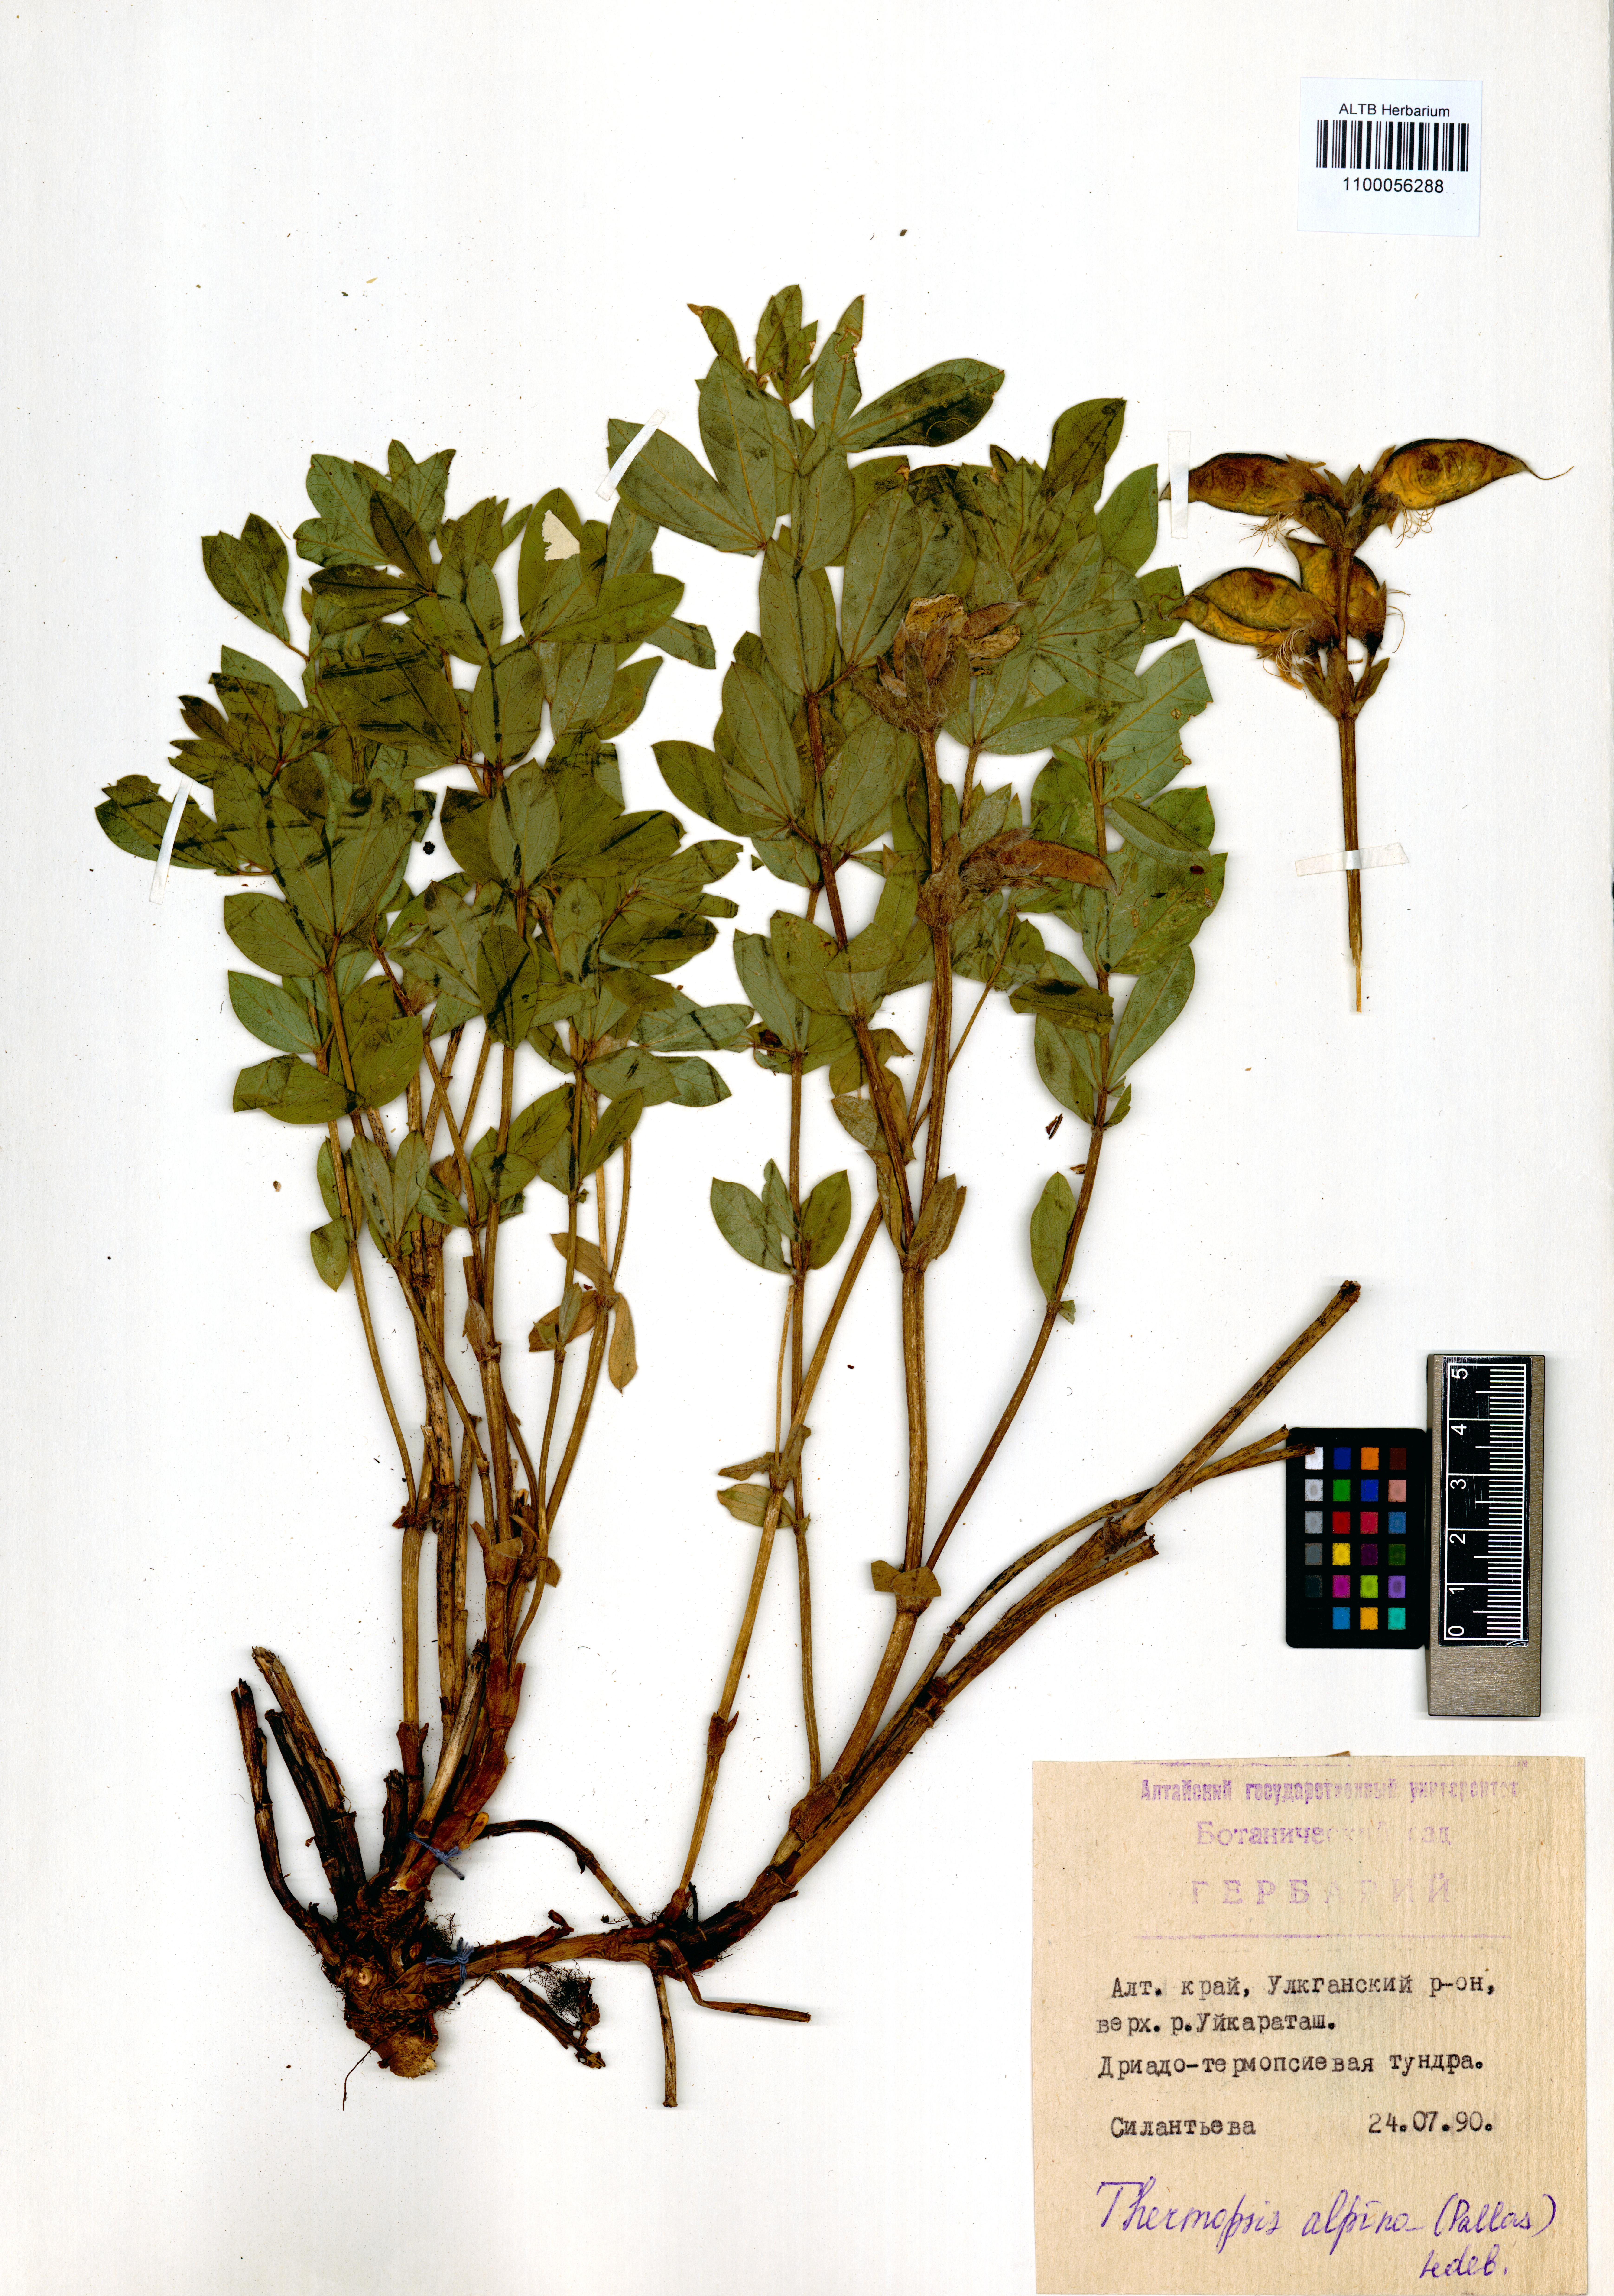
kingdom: Plantae
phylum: Tracheophyta
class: Magnoliopsida
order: Fabales
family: Fabaceae
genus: Thermopsis
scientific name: Thermopsis alpina
